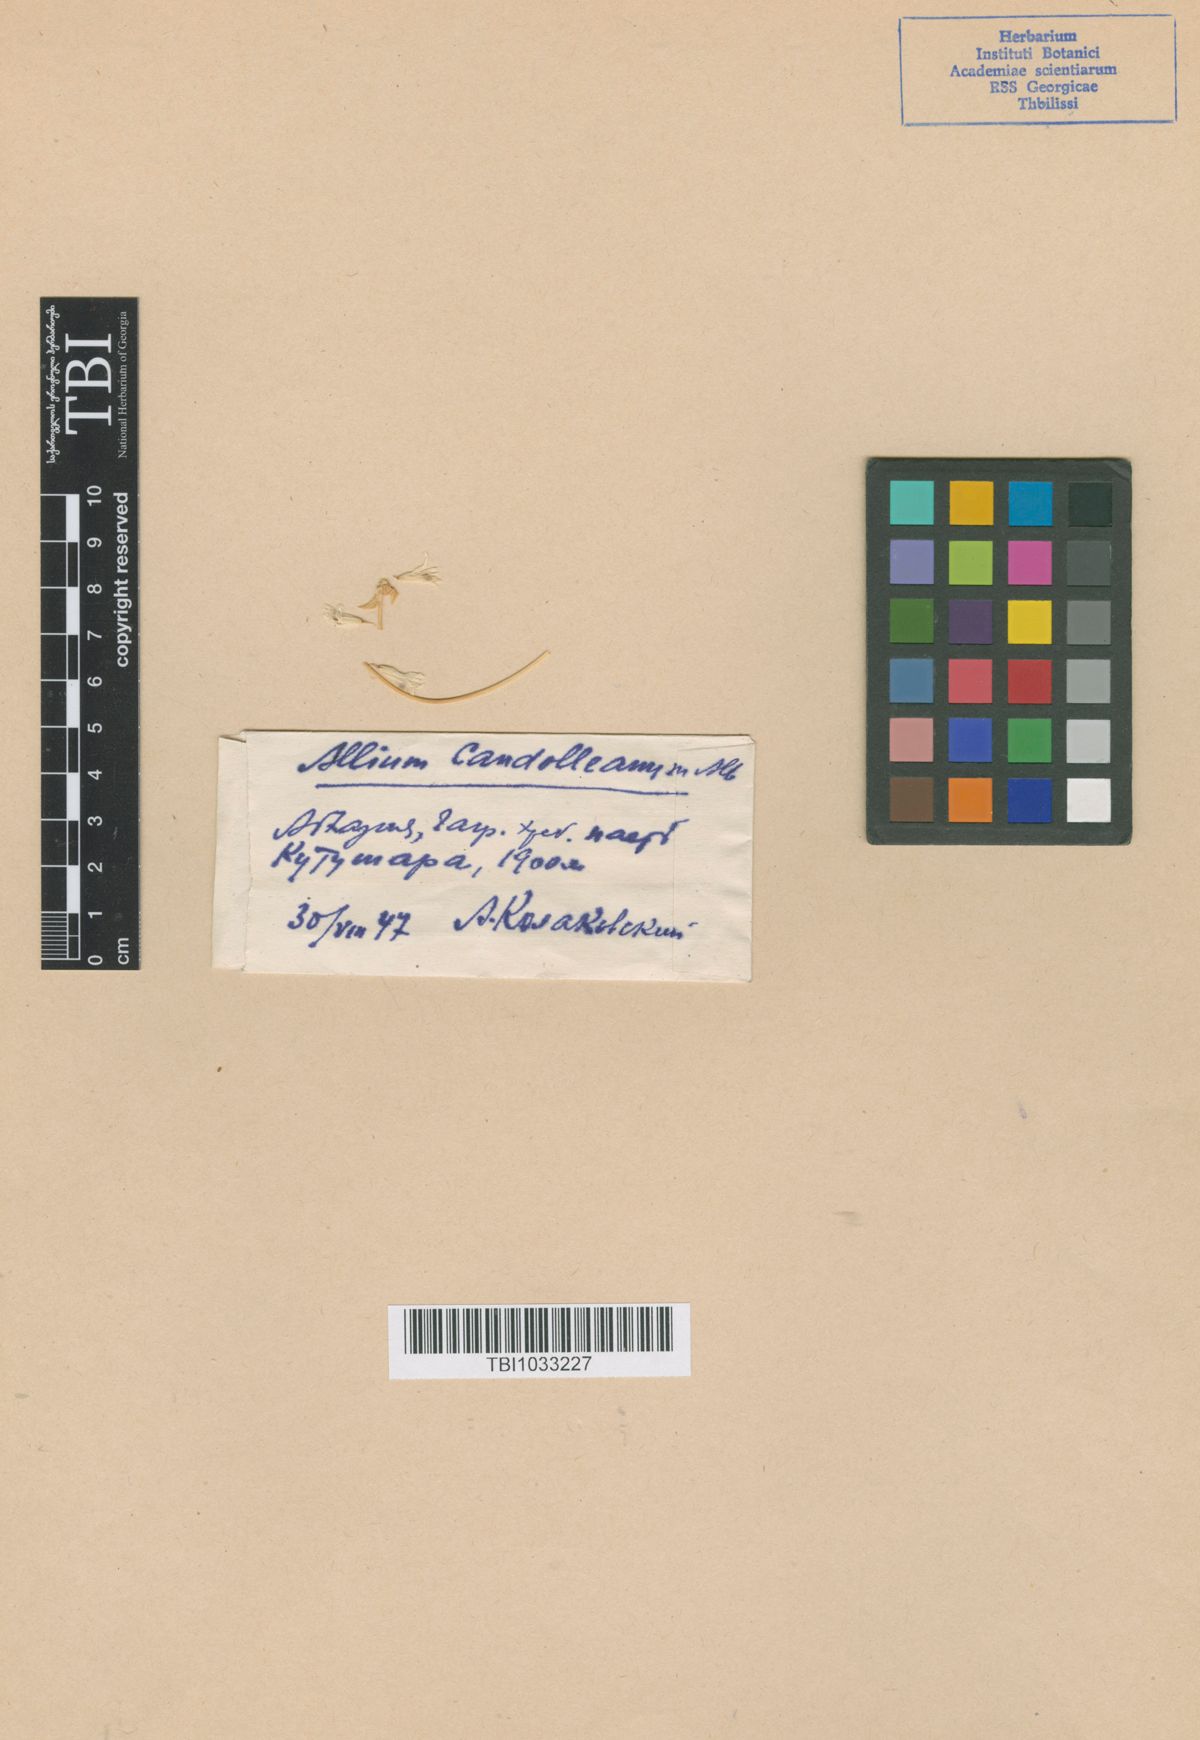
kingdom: Plantae
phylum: Tracheophyta
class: Liliopsida
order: Asparagales
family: Amaryllidaceae
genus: Allium
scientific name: Allium candolleanum
